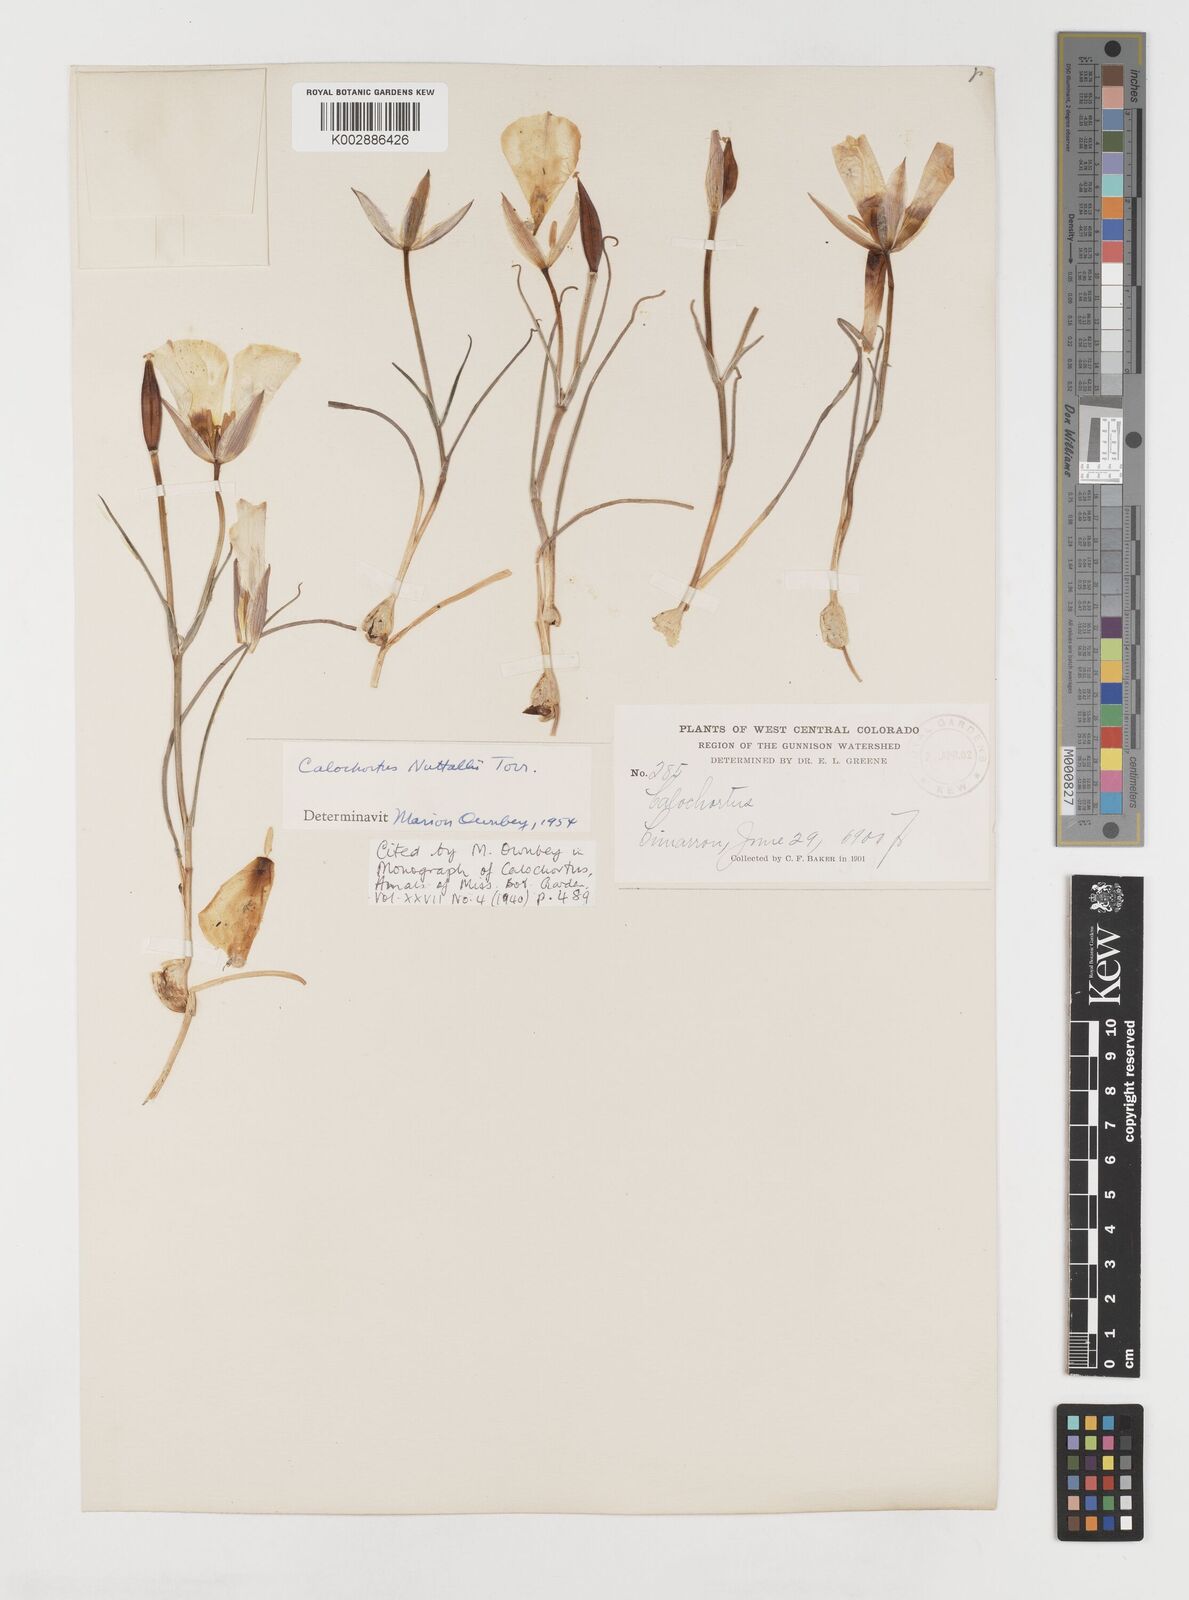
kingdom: Plantae
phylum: Tracheophyta
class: Liliopsida
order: Liliales
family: Liliaceae
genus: Calochortus
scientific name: Calochortus nuttallii
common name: Sego-lily
